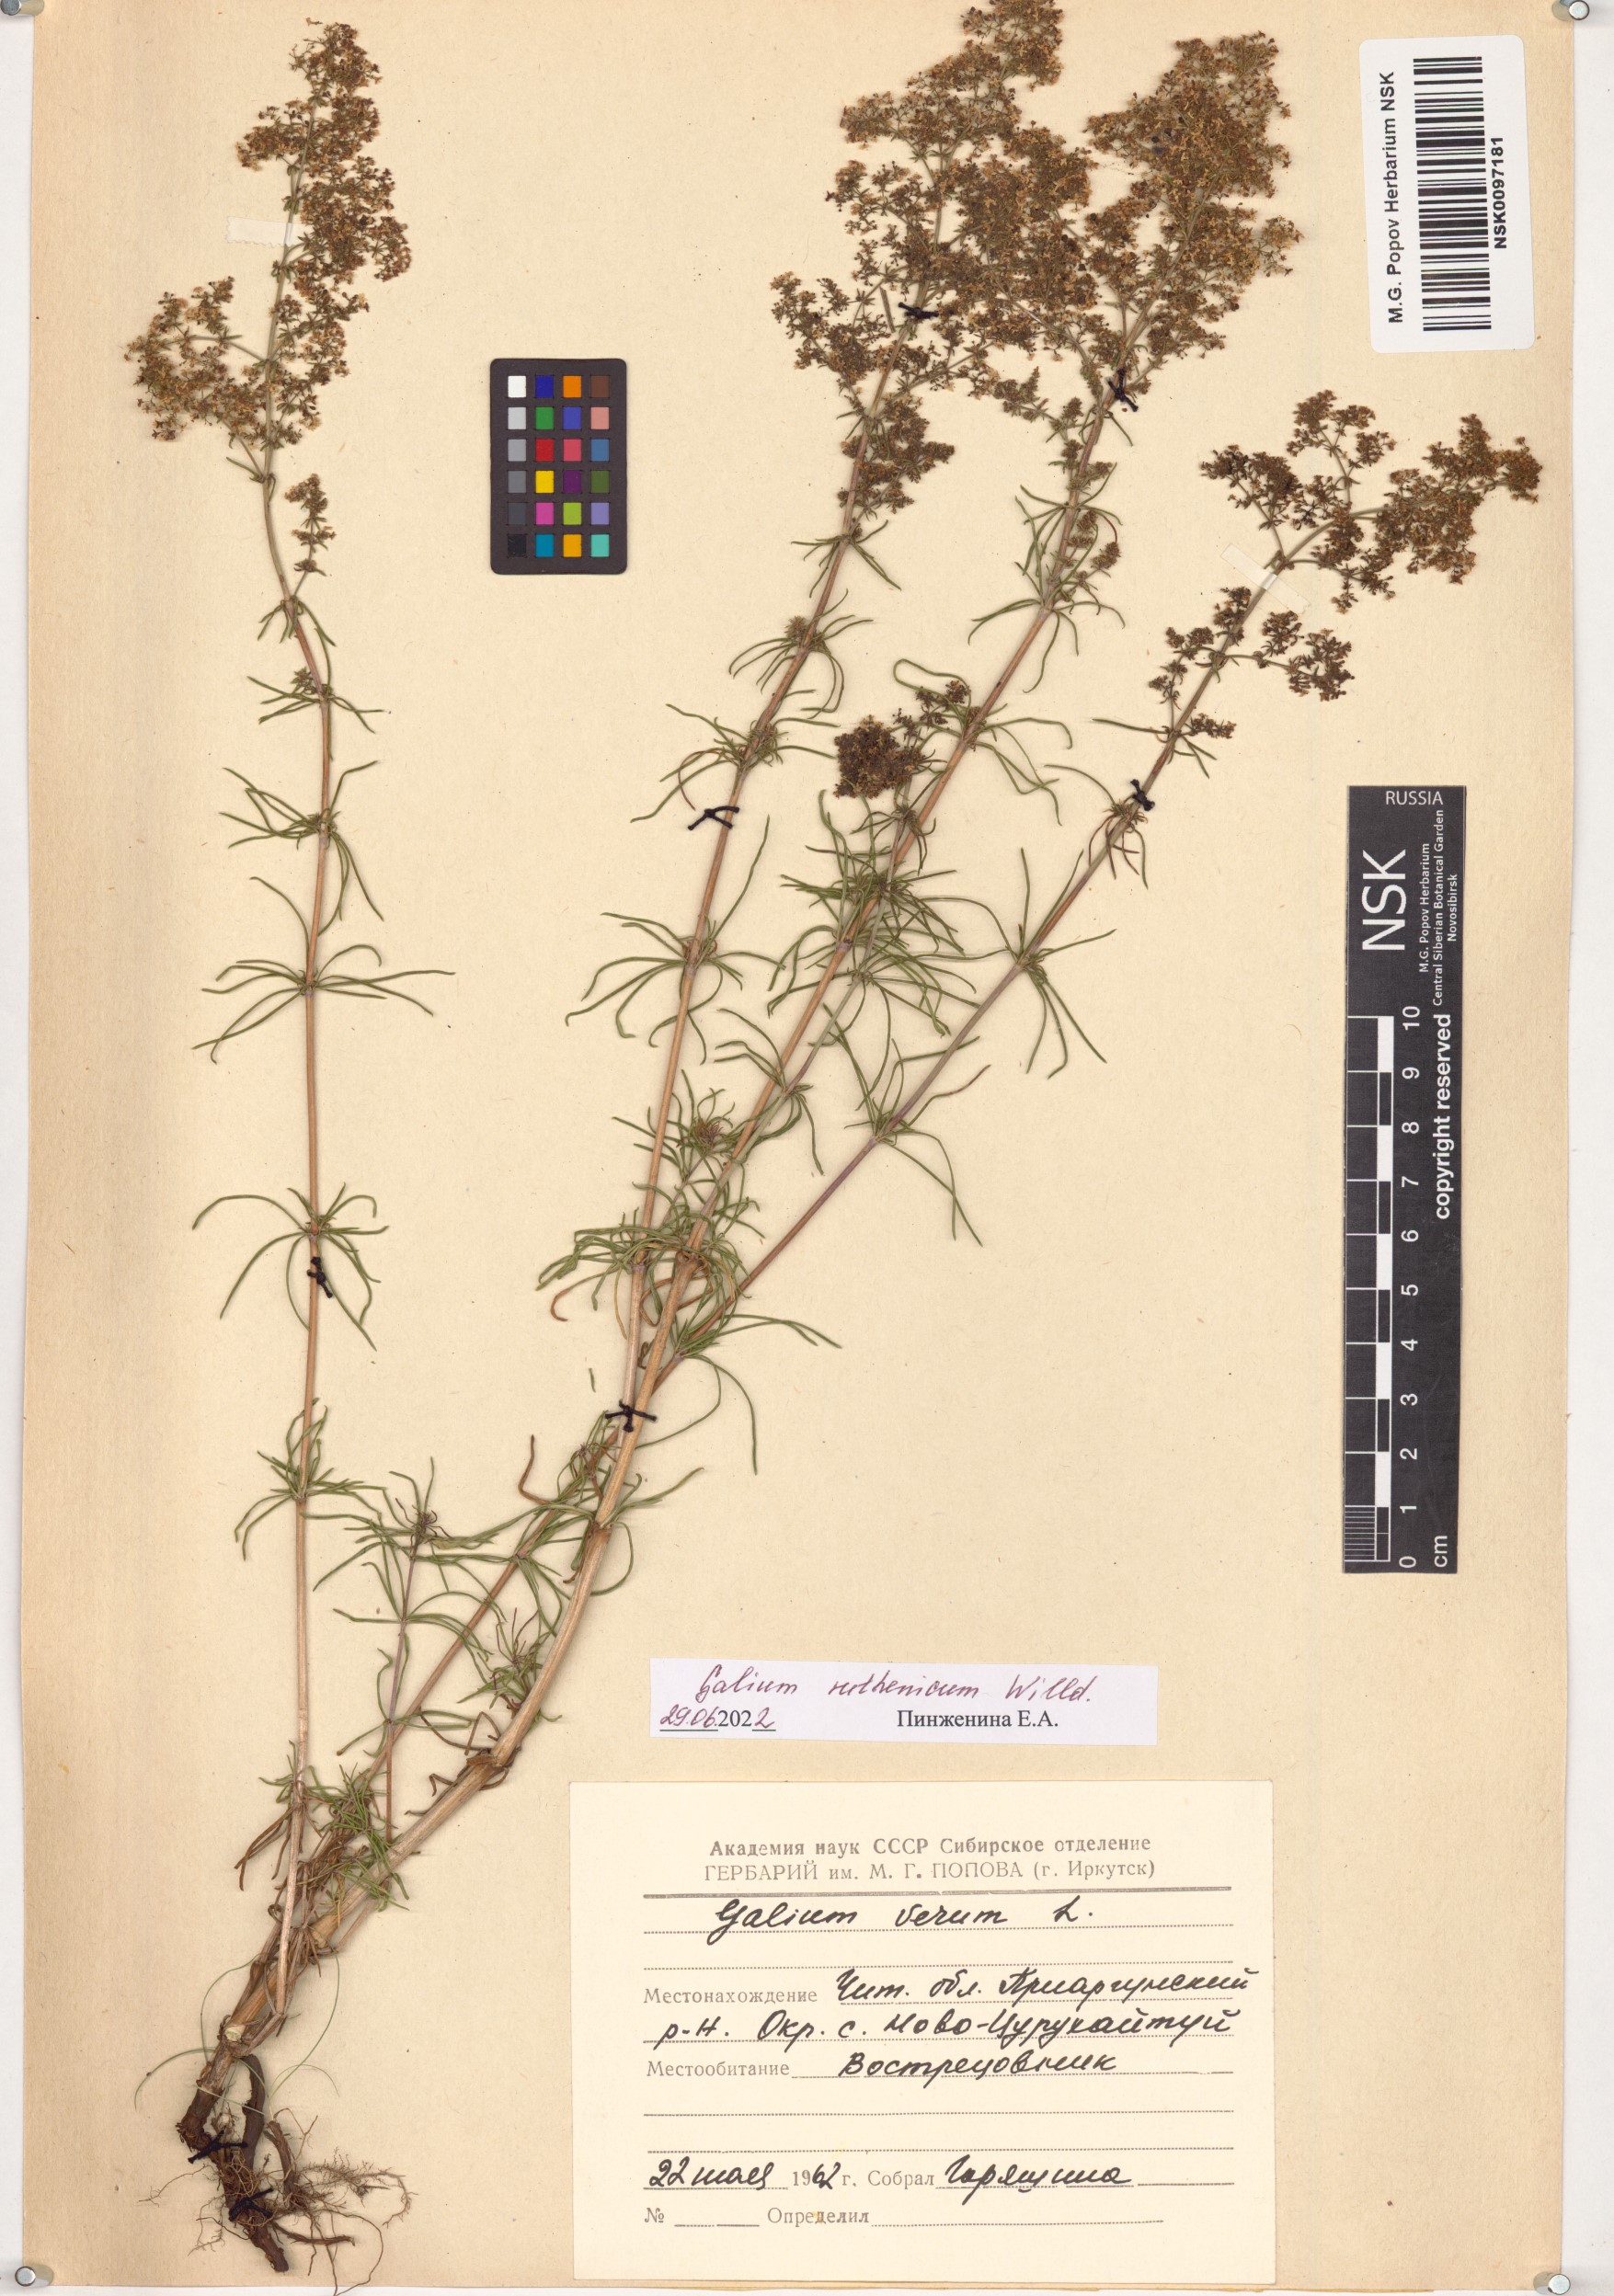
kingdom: Plantae
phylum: Tracheophyta
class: Magnoliopsida
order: Gentianales
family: Rubiaceae
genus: Galium
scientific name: Galium verum
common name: Lady's bedstraw
